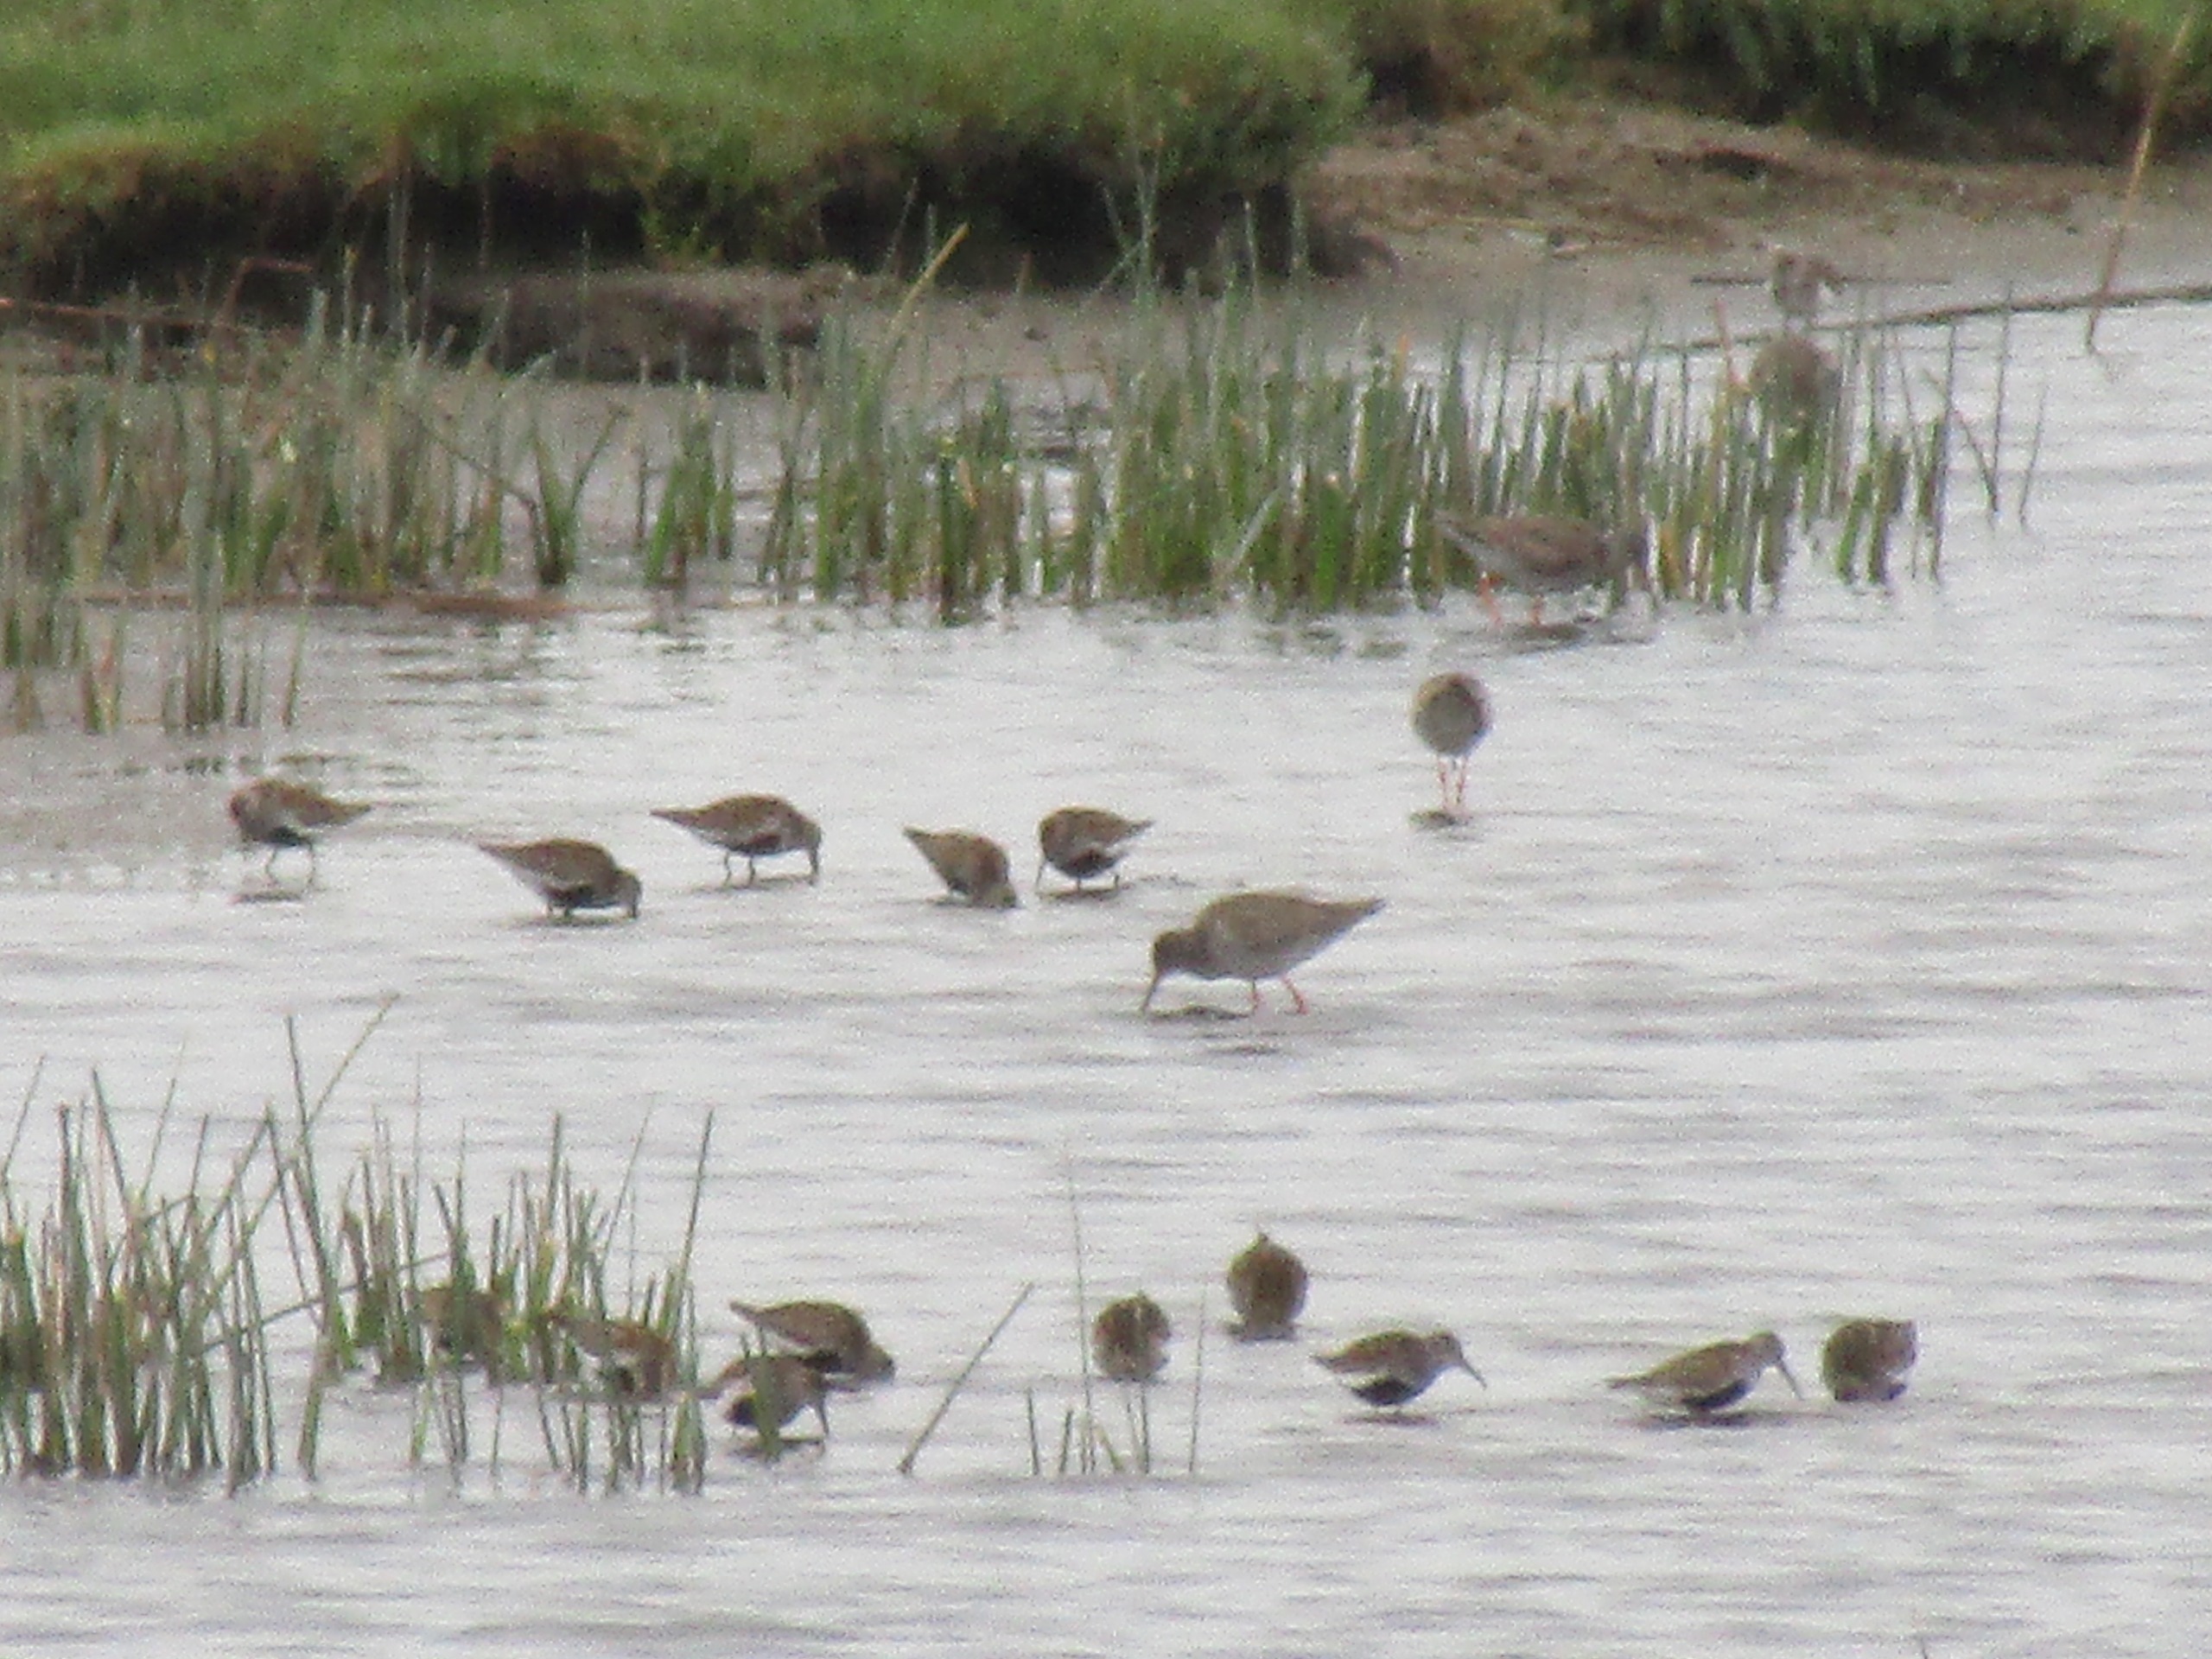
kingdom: Animalia
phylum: Chordata
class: Aves
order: Charadriiformes
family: Scolopacidae
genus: Calidris
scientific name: Calidris alpina
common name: Almindelig ryle
